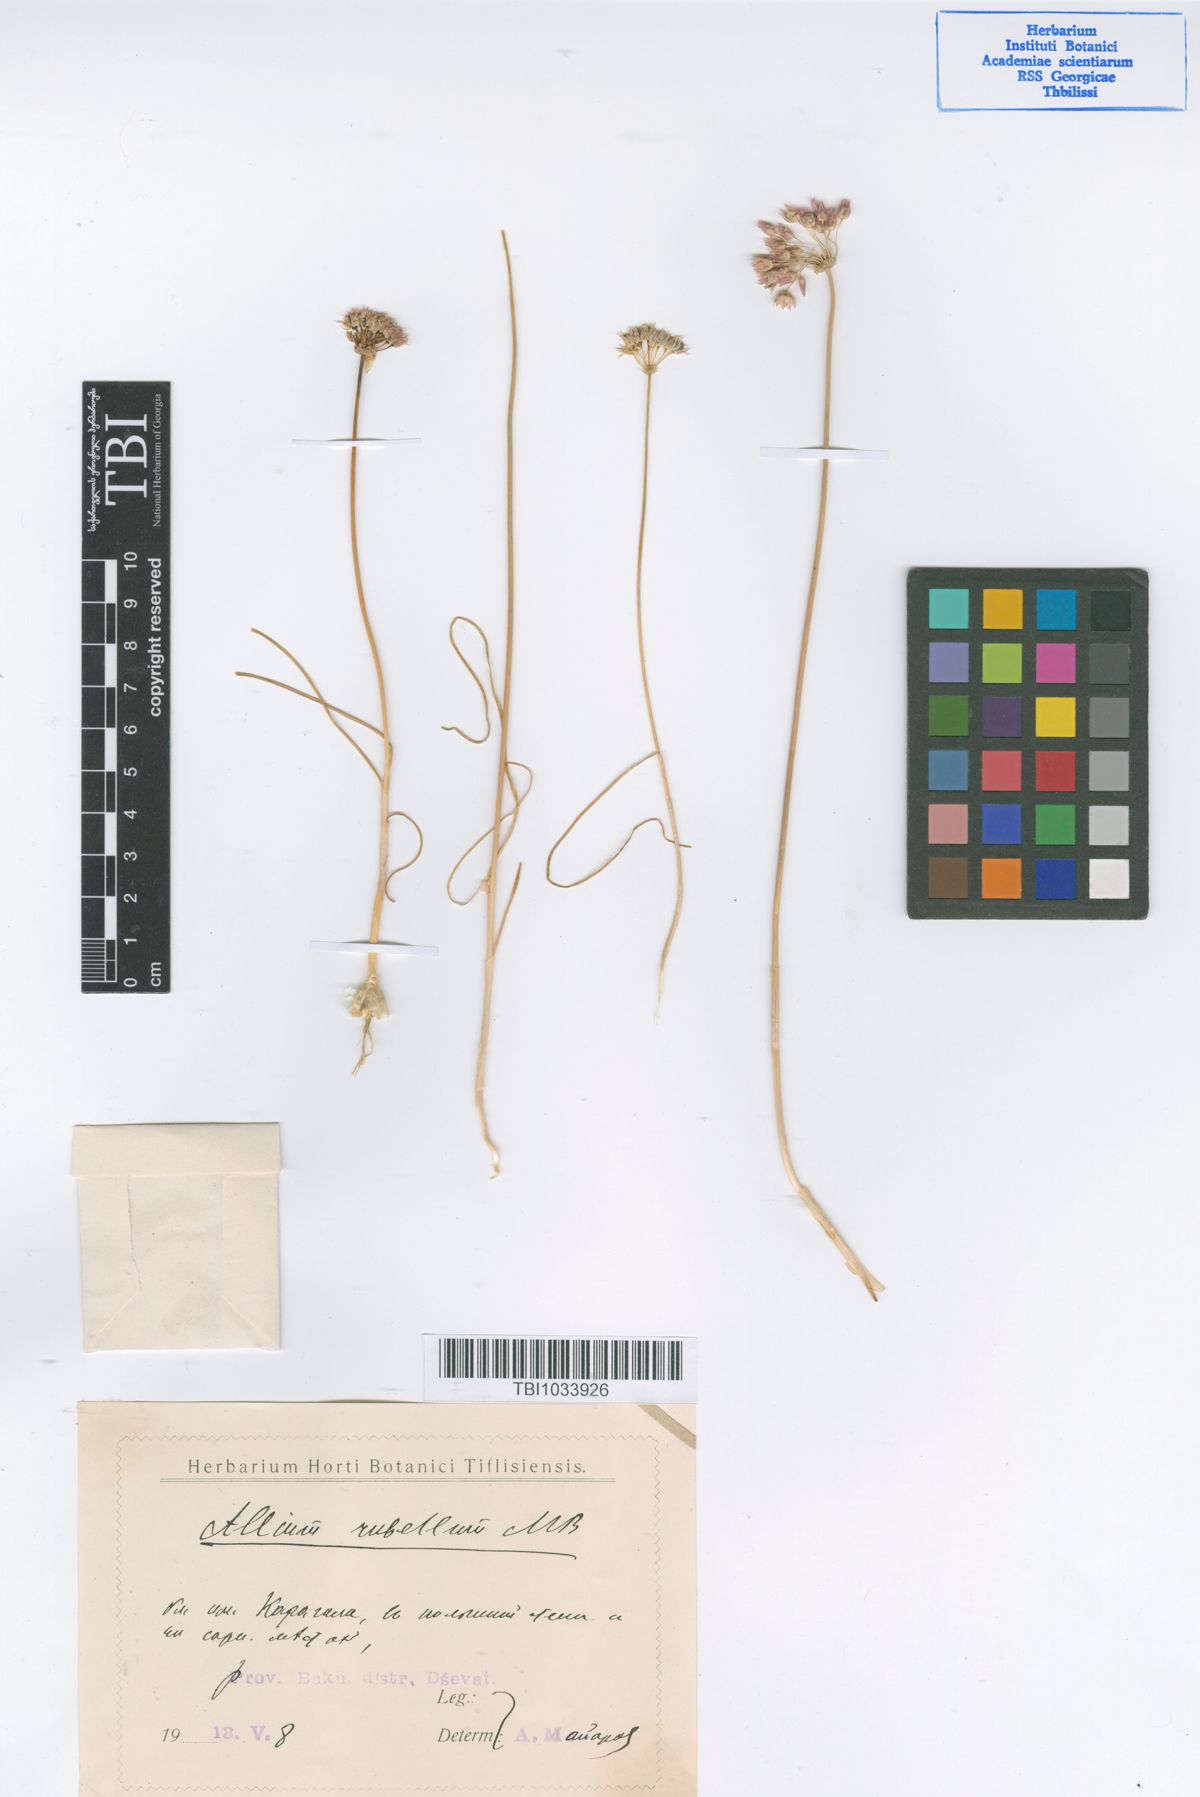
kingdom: Plantae
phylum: Tracheophyta
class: Liliopsida
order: Asparagales
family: Amaryllidaceae
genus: Allium
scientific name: Allium rubellum
